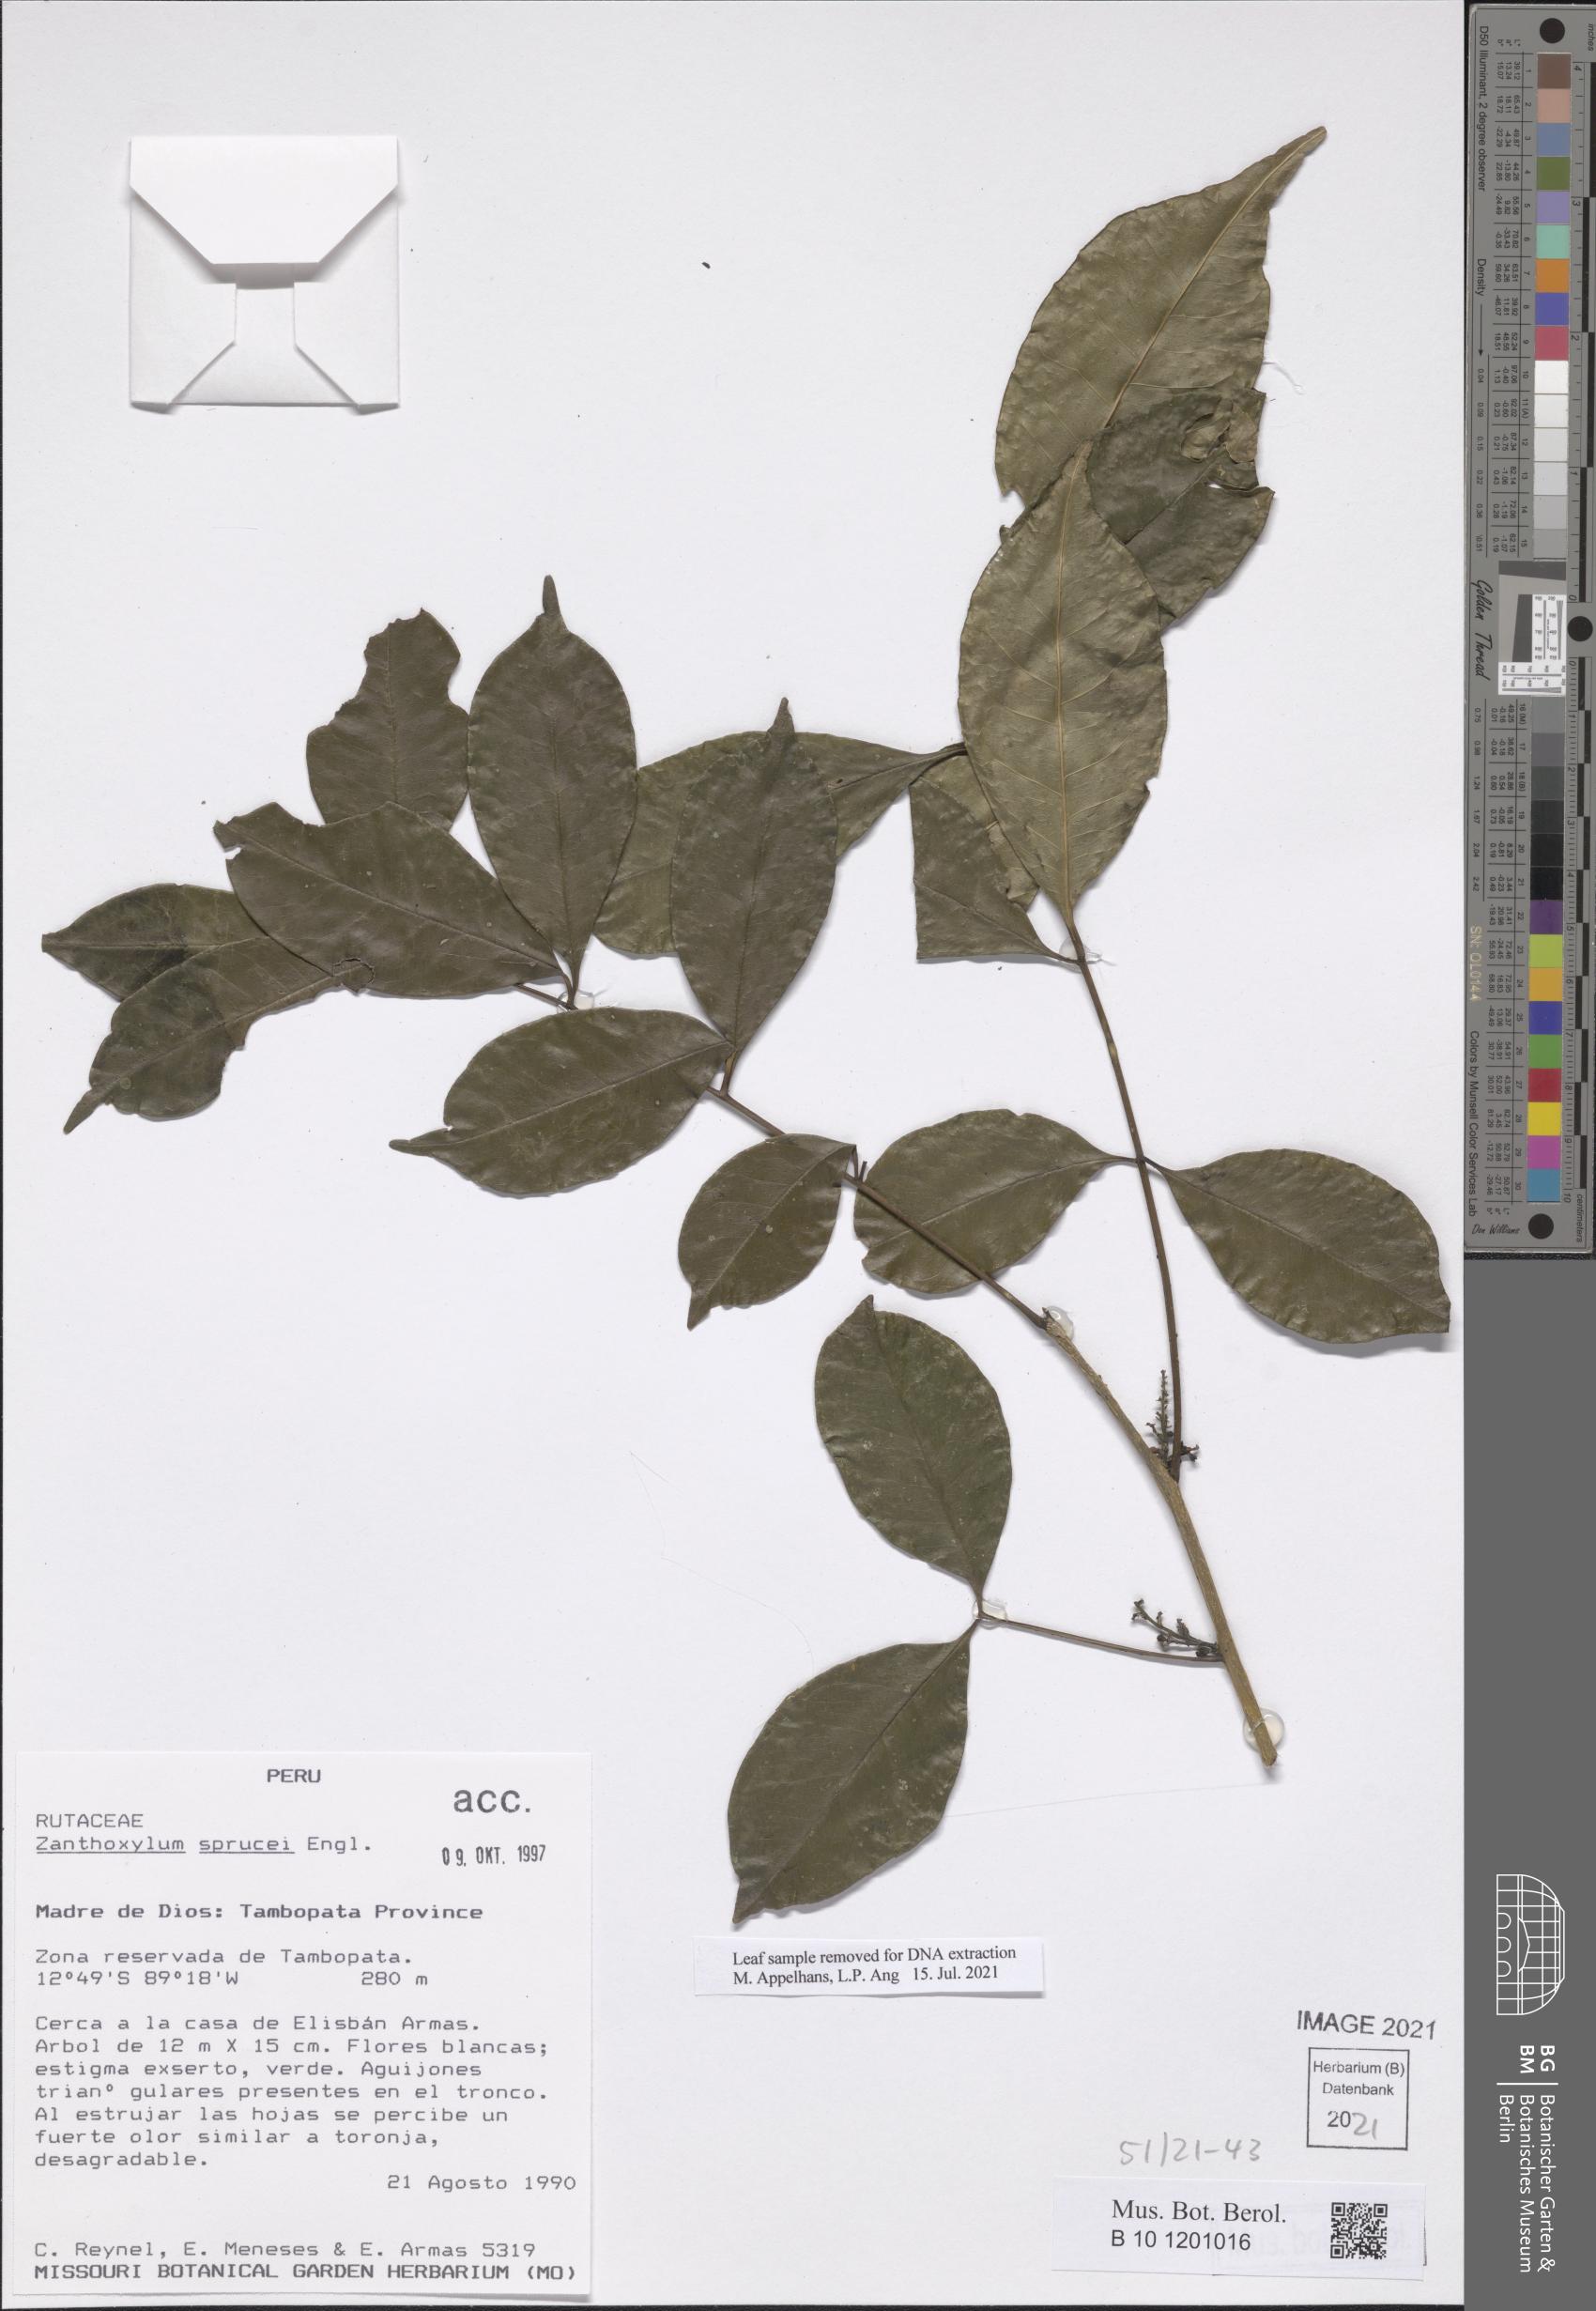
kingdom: Plantae
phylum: Tracheophyta
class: Magnoliopsida
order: Sapindales
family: Rutaceae
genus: Zanthoxylum
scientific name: Zanthoxylum sprucei
